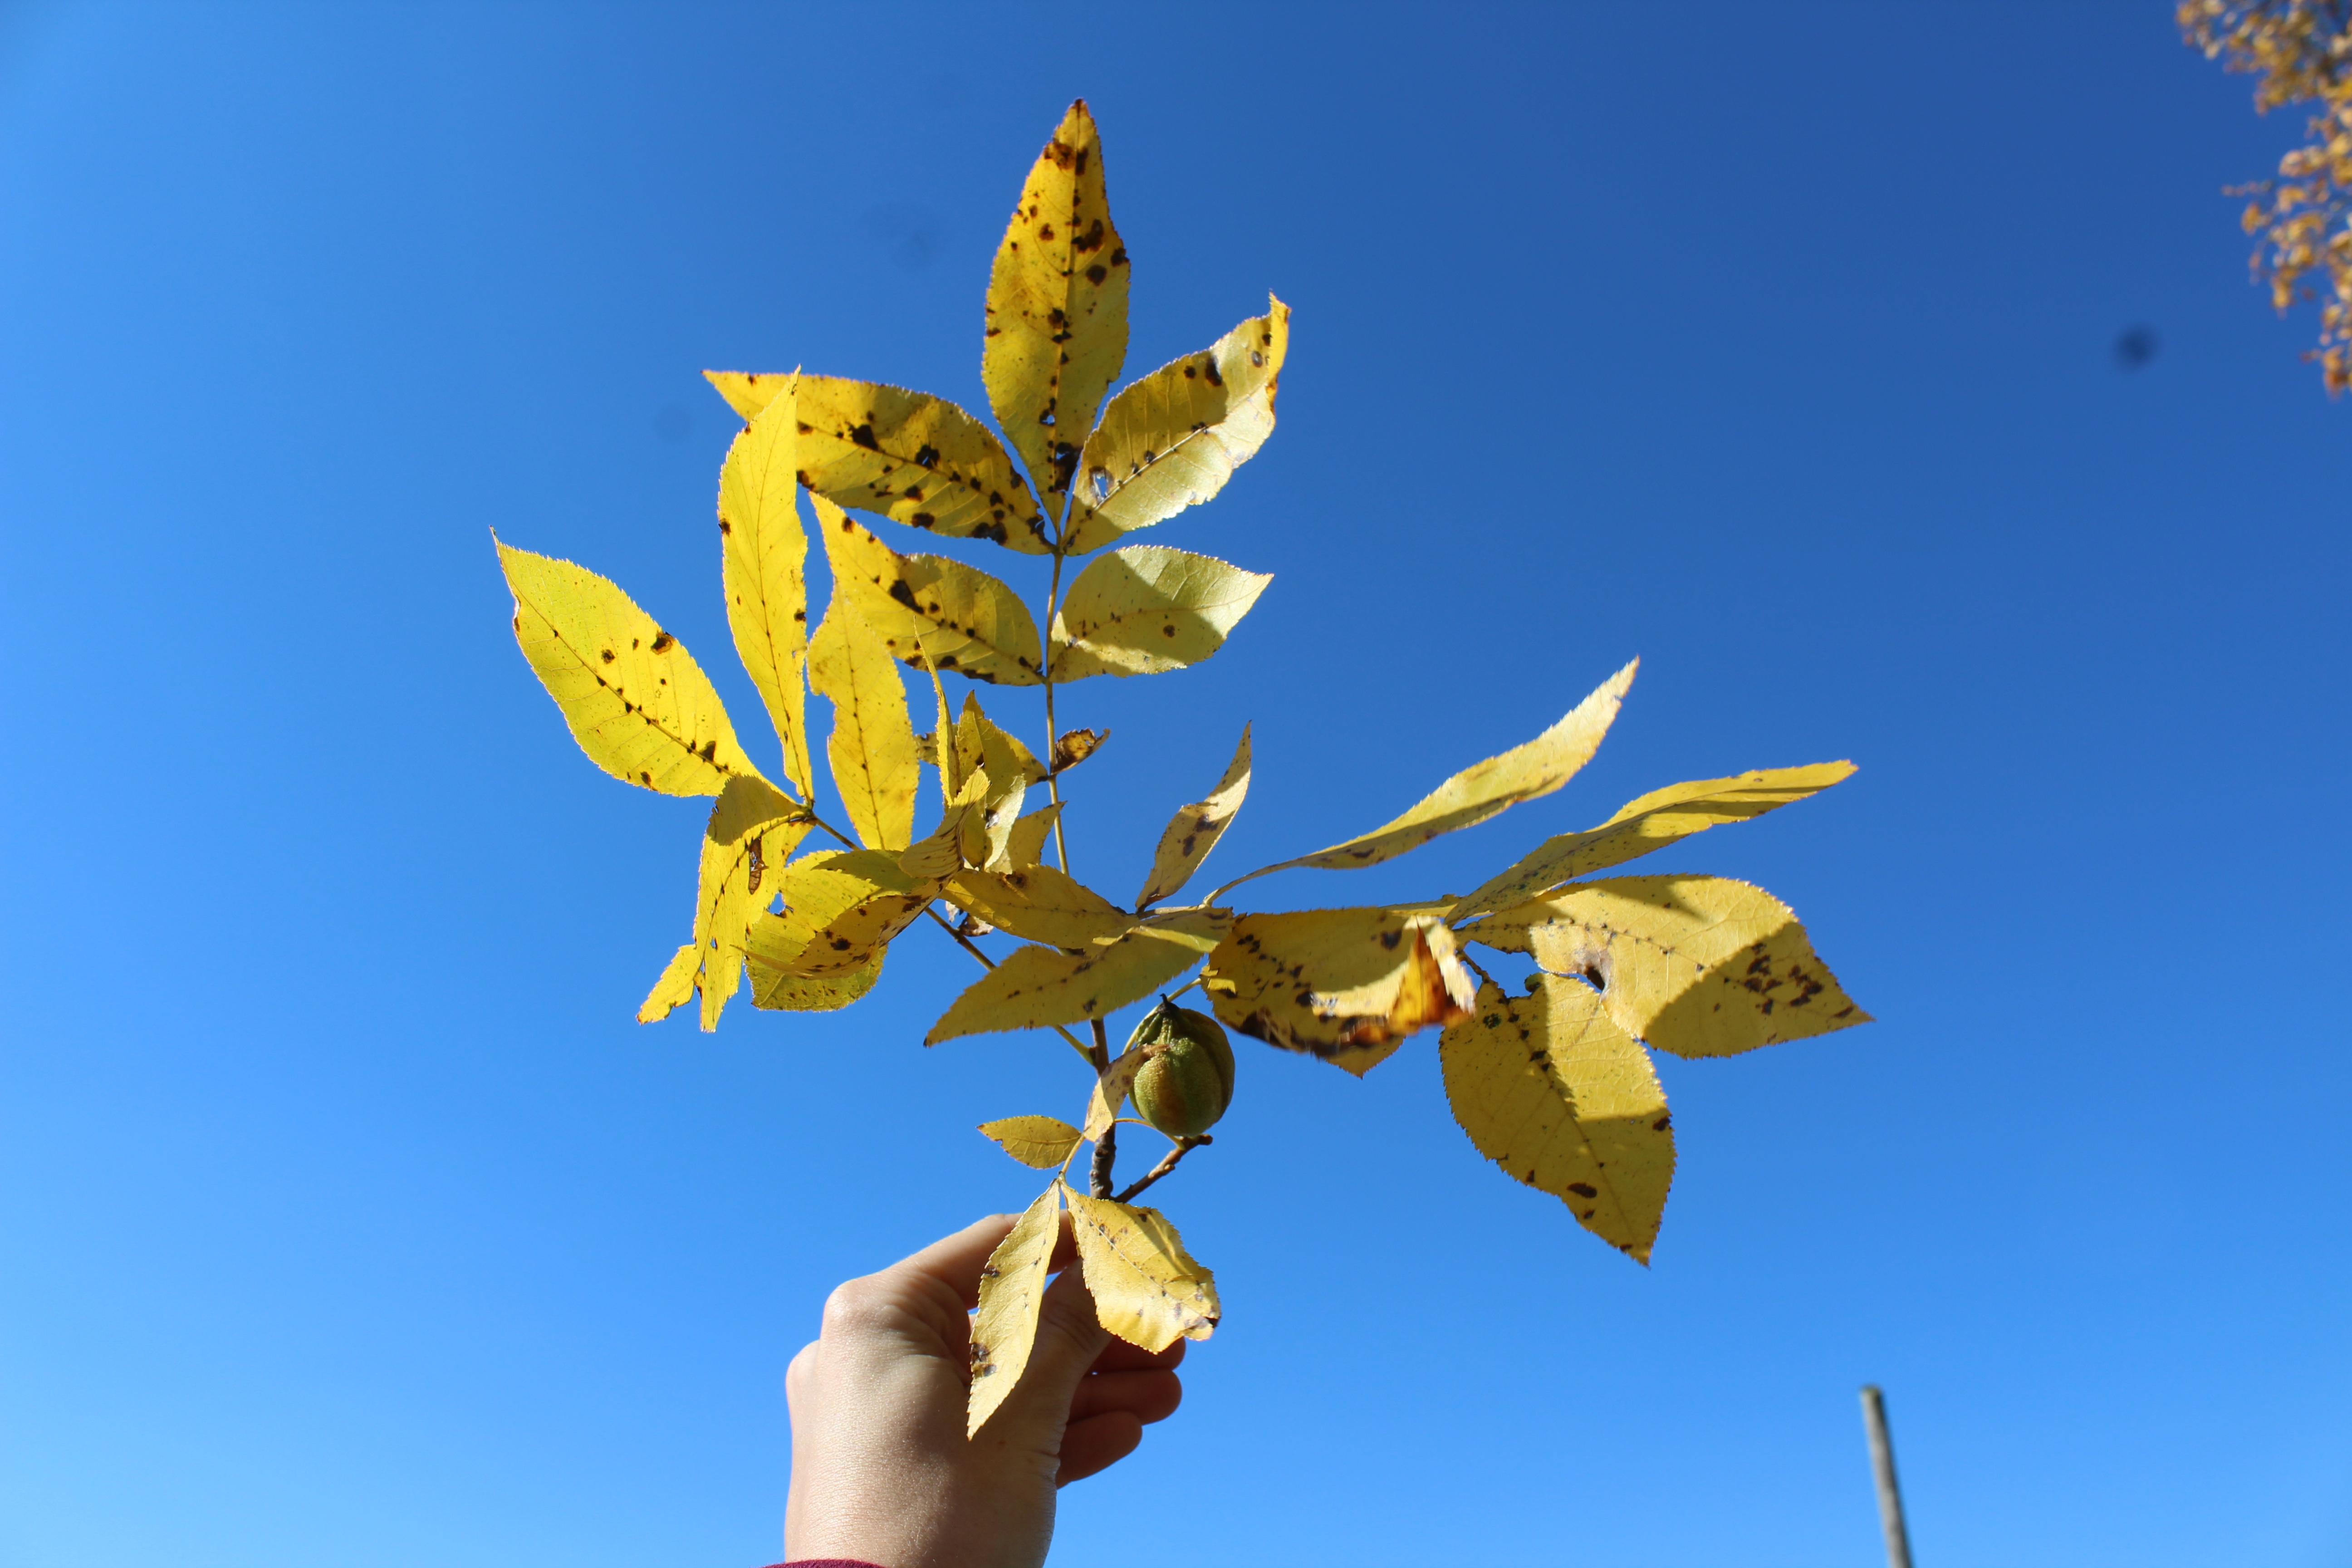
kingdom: Plantae
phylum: Tracheophyta
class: Magnoliopsida
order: Fagales
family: Juglandaceae
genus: Carya
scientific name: Carya cordiformis
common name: Bitternut hickory
